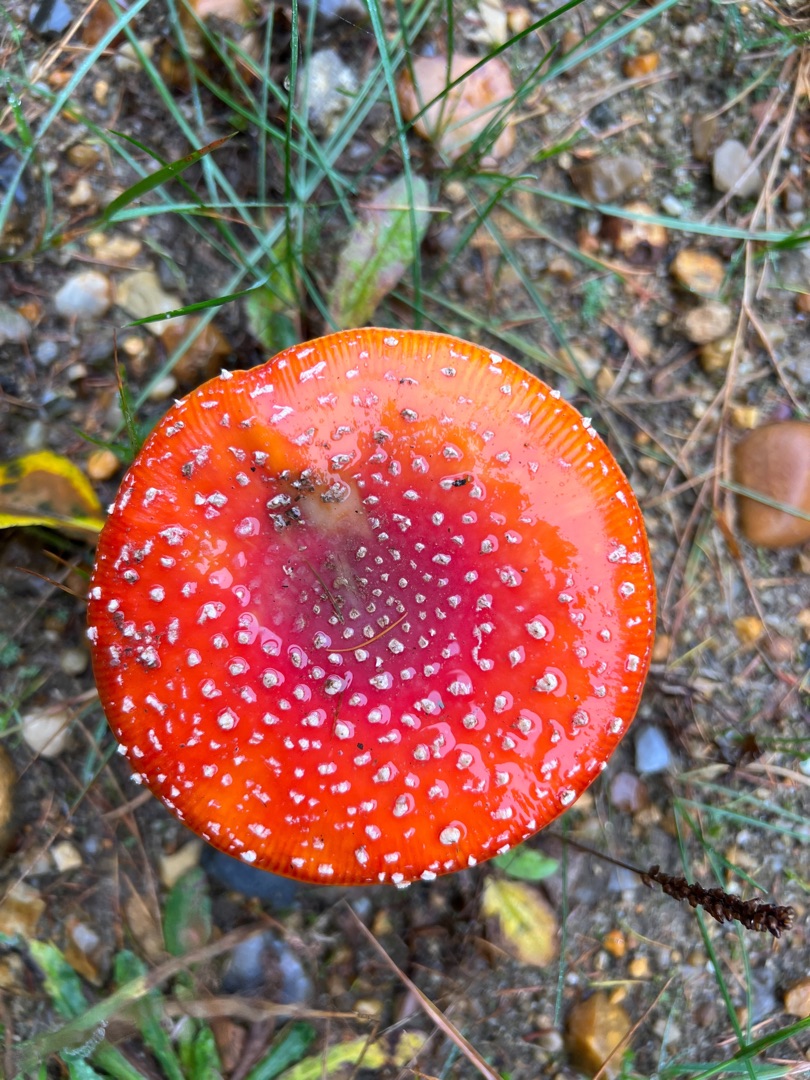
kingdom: Fungi
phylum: Basidiomycota
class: Agaricomycetes
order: Agaricales
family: Amanitaceae
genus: Amanita
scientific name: Amanita muscaria
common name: Rød fluesvamp
